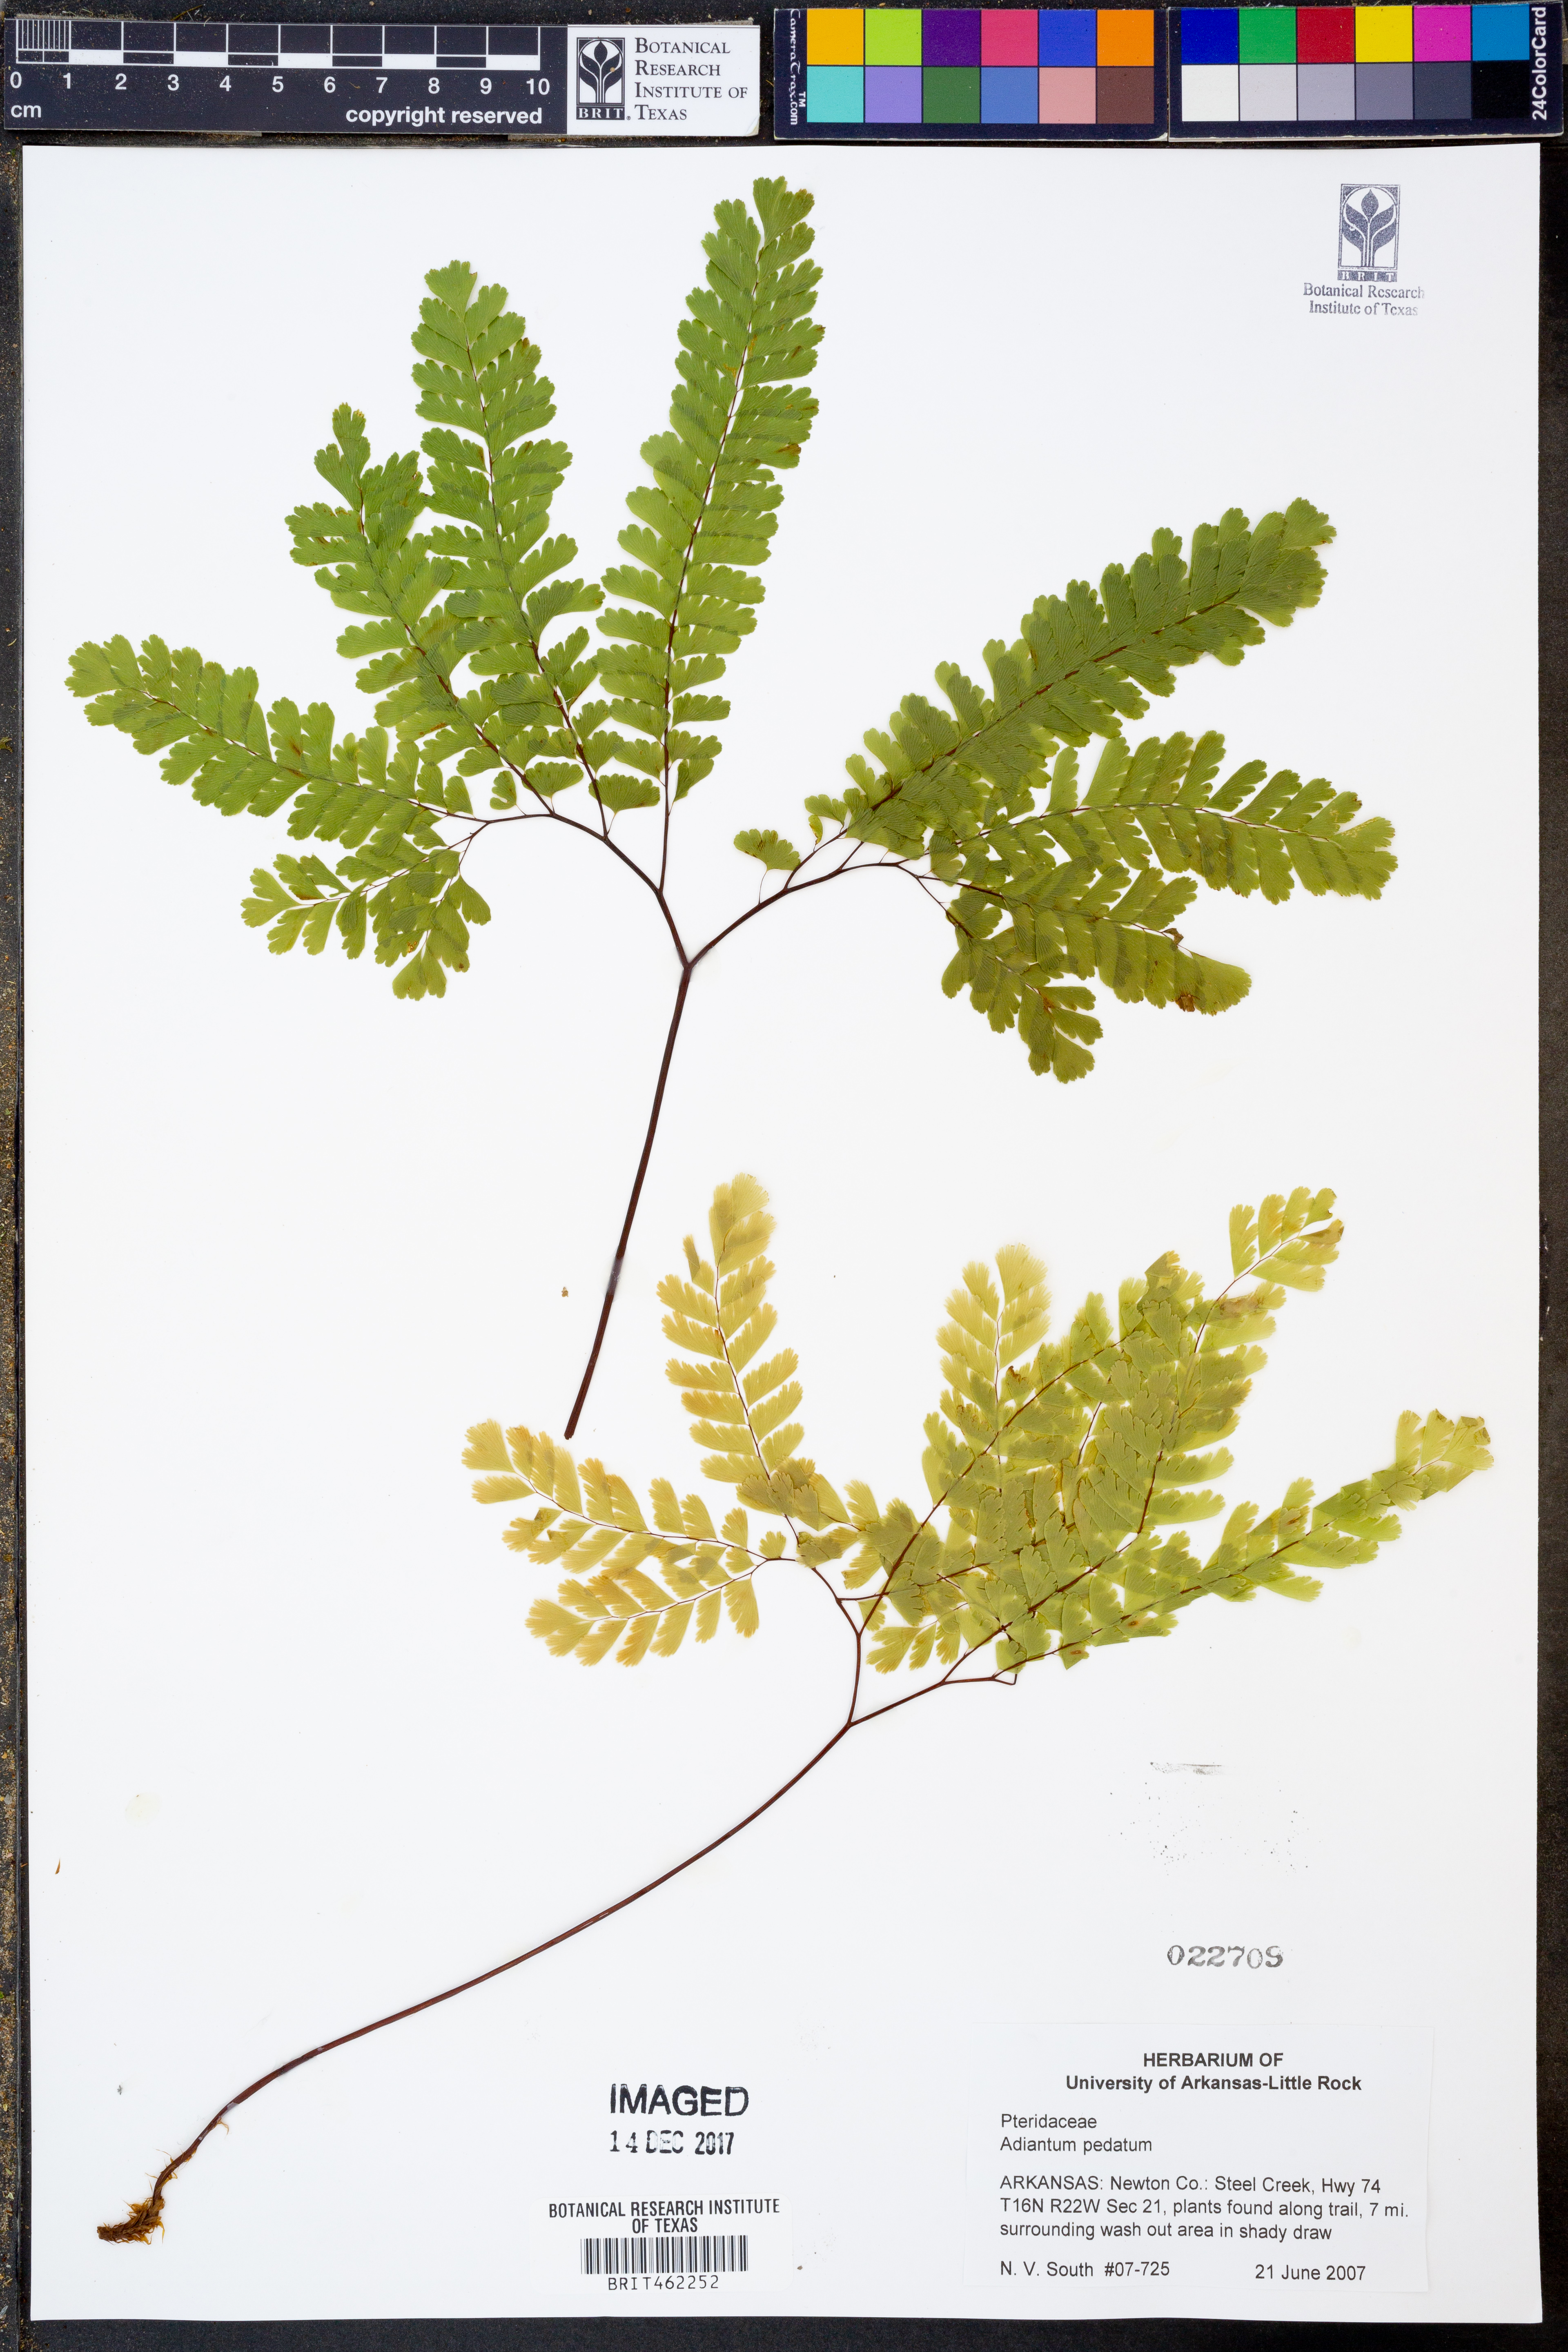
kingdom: Plantae
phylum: Tracheophyta
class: Polypodiopsida
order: Polypodiales
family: Pteridaceae
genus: Adiantum
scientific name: Adiantum pedatum
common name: Five-finger fern
